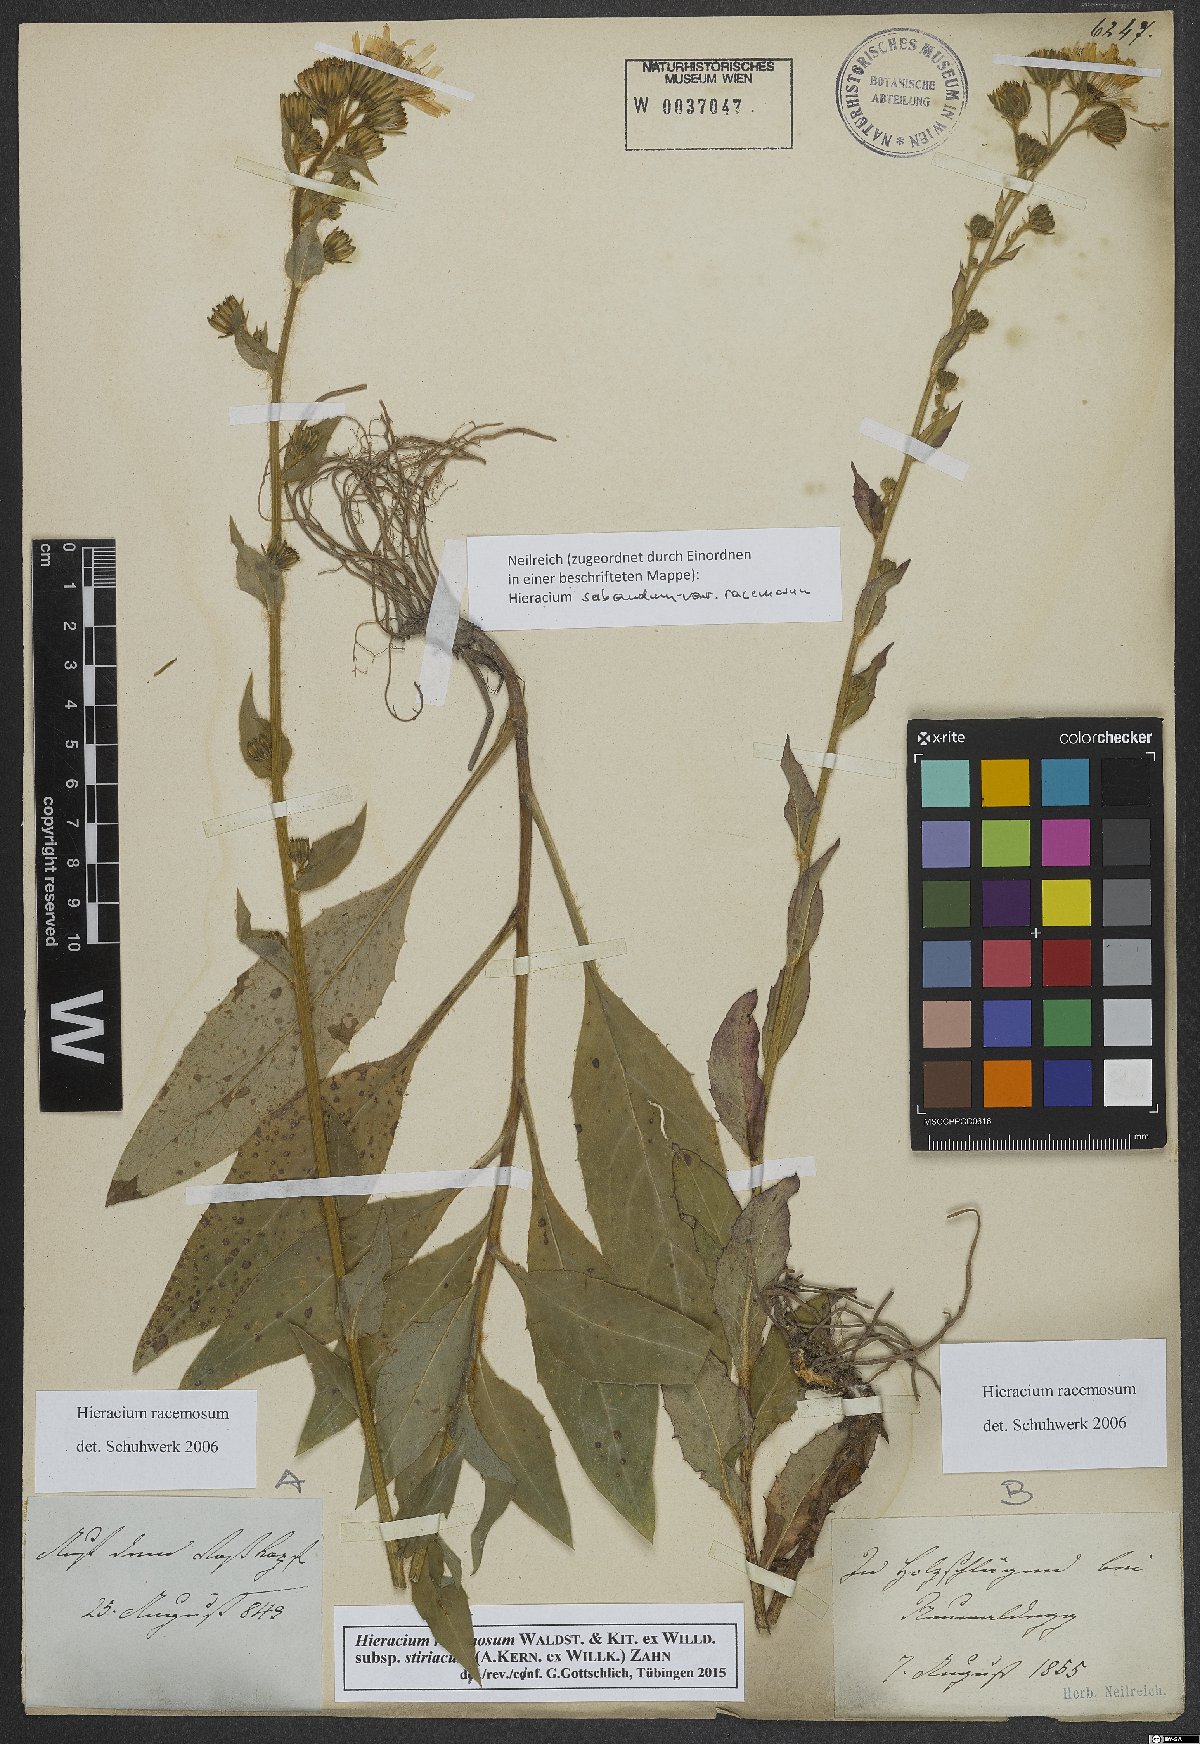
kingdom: Plantae
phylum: Tracheophyta
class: Magnoliopsida
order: Asterales
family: Asteraceae
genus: Hieracium
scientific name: Hieracium racemosum
